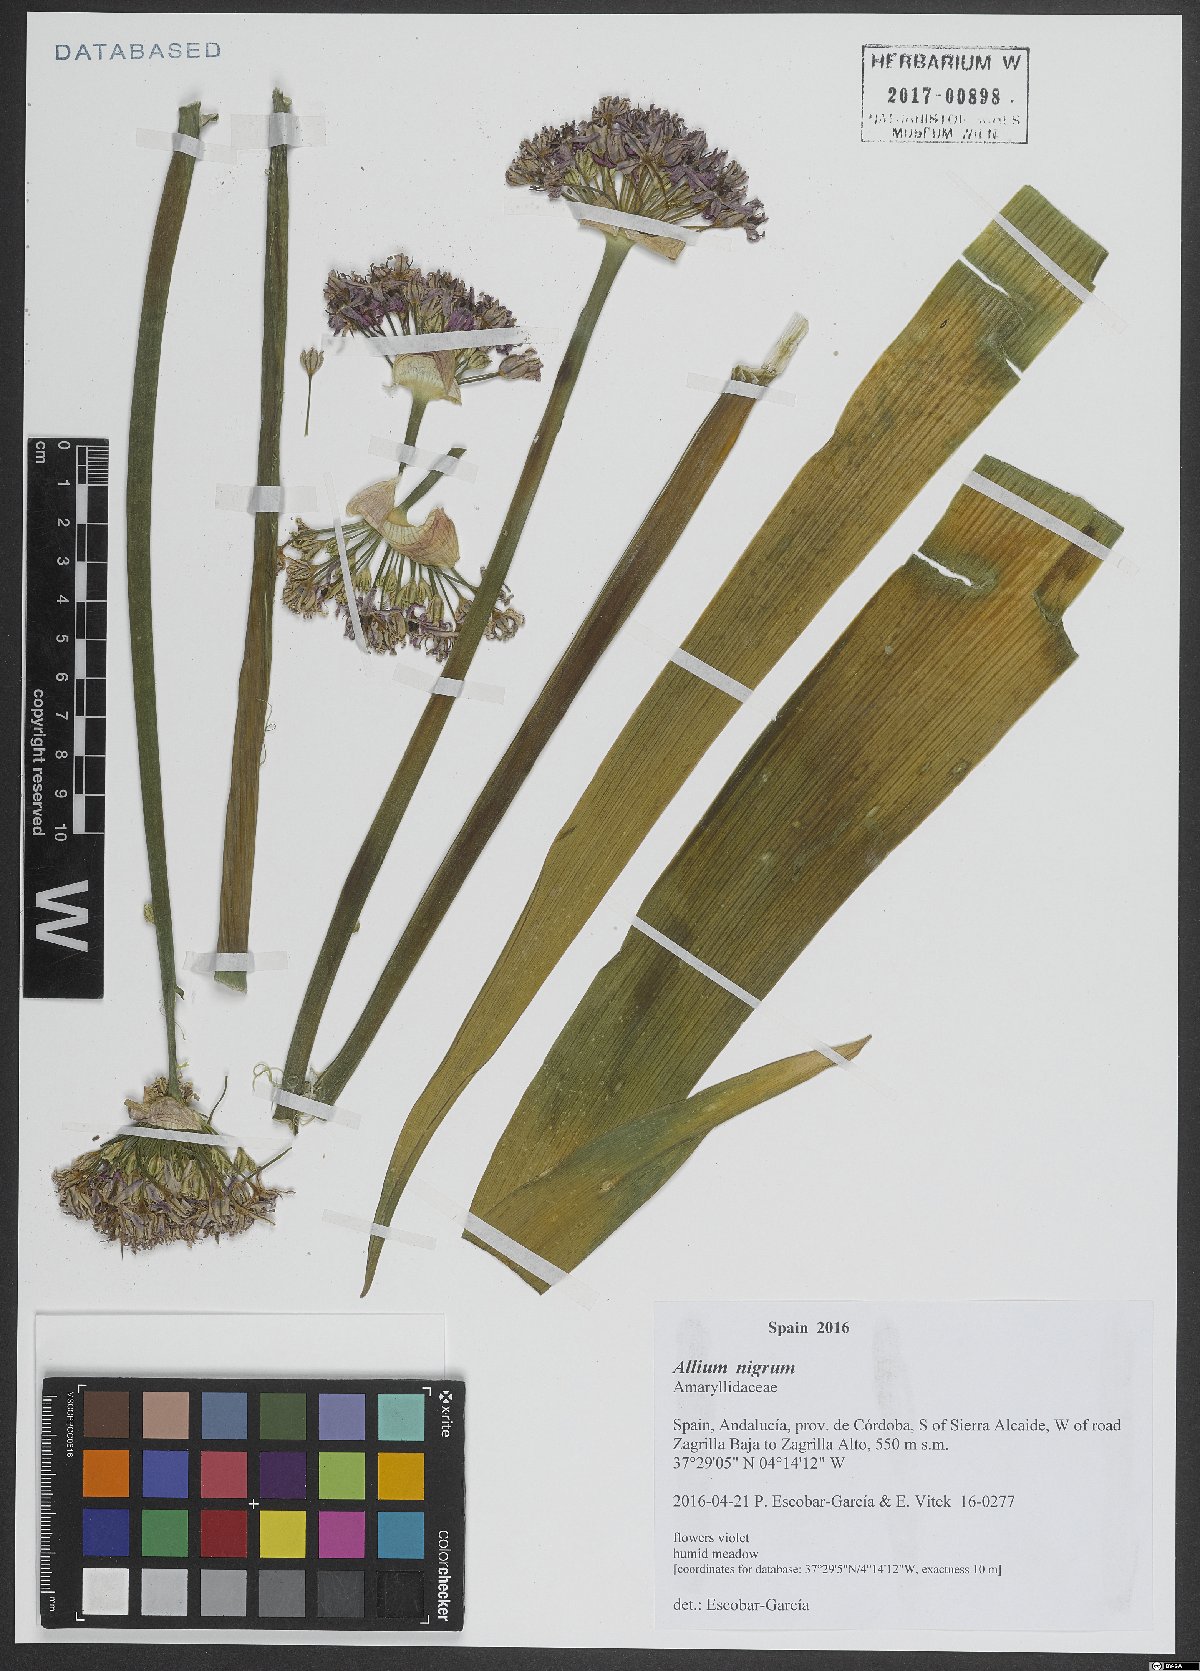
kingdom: Plantae
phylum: Tracheophyta
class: Liliopsida
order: Asparagales
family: Amaryllidaceae
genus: Allium
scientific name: Allium nigrum
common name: Black garlic
